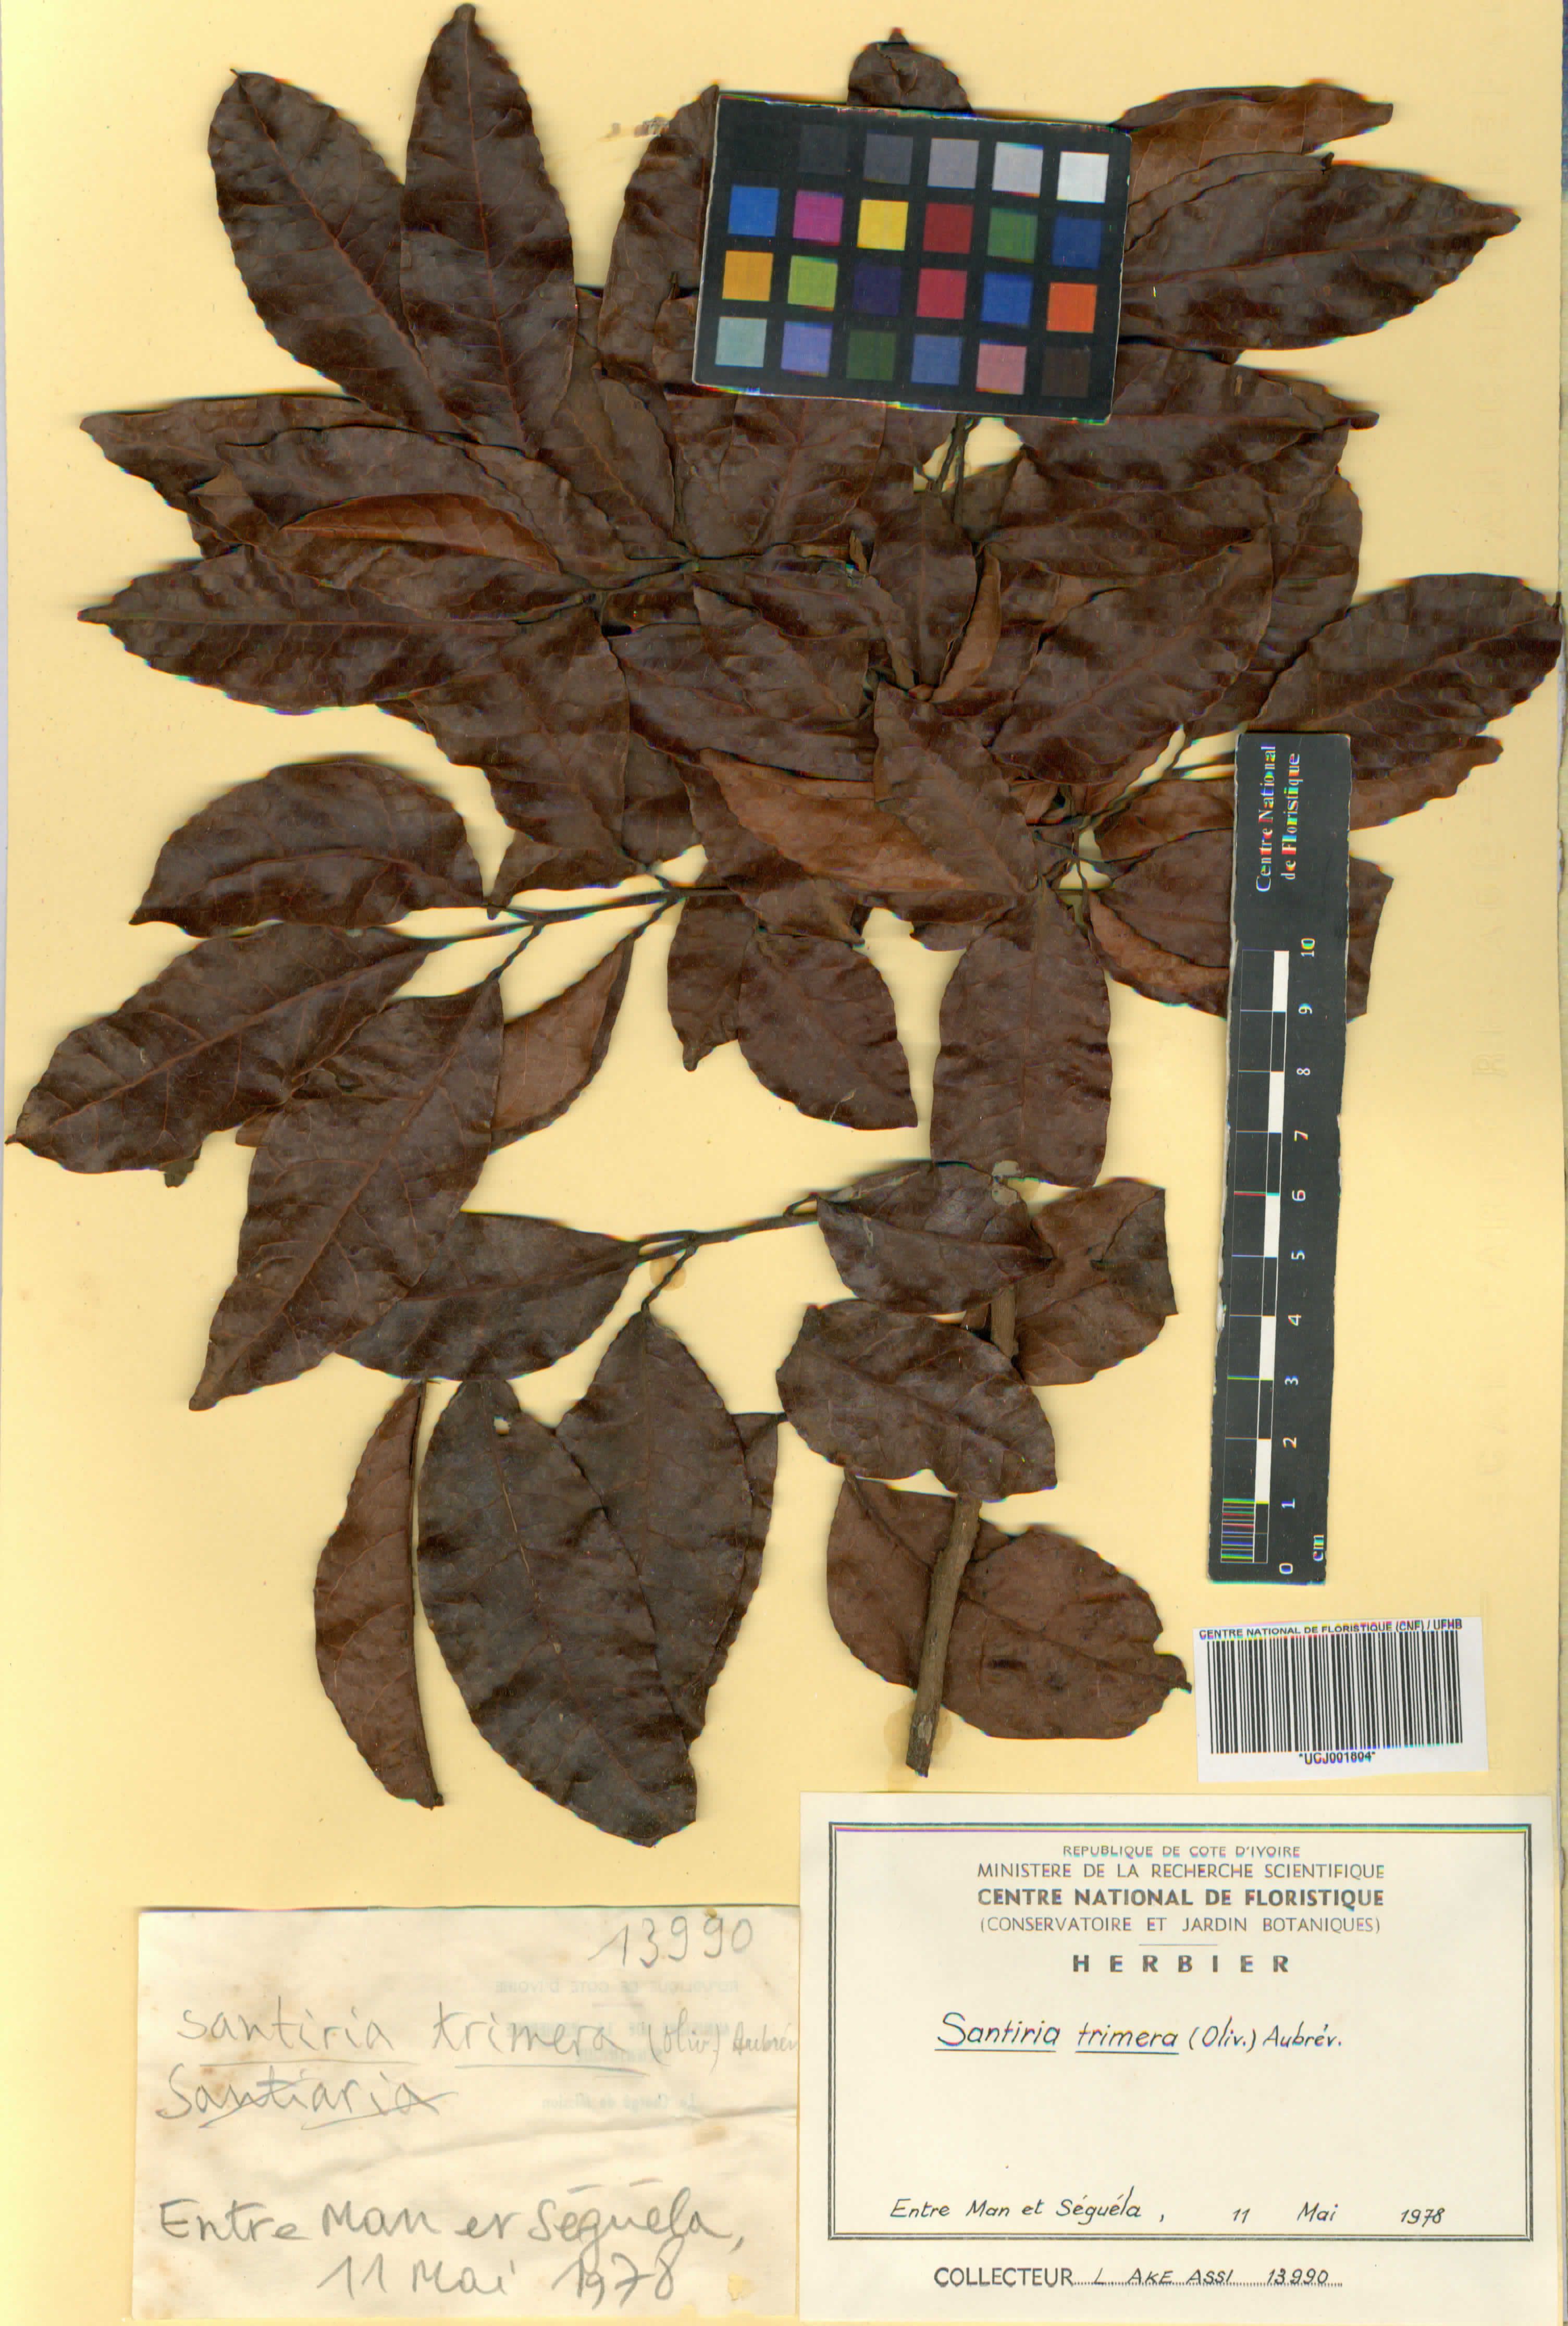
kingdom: Plantae
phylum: Tracheophyta
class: Magnoliopsida
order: Sapindales
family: Burseraceae
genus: Pachylobus
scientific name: Pachylobus trimerus
